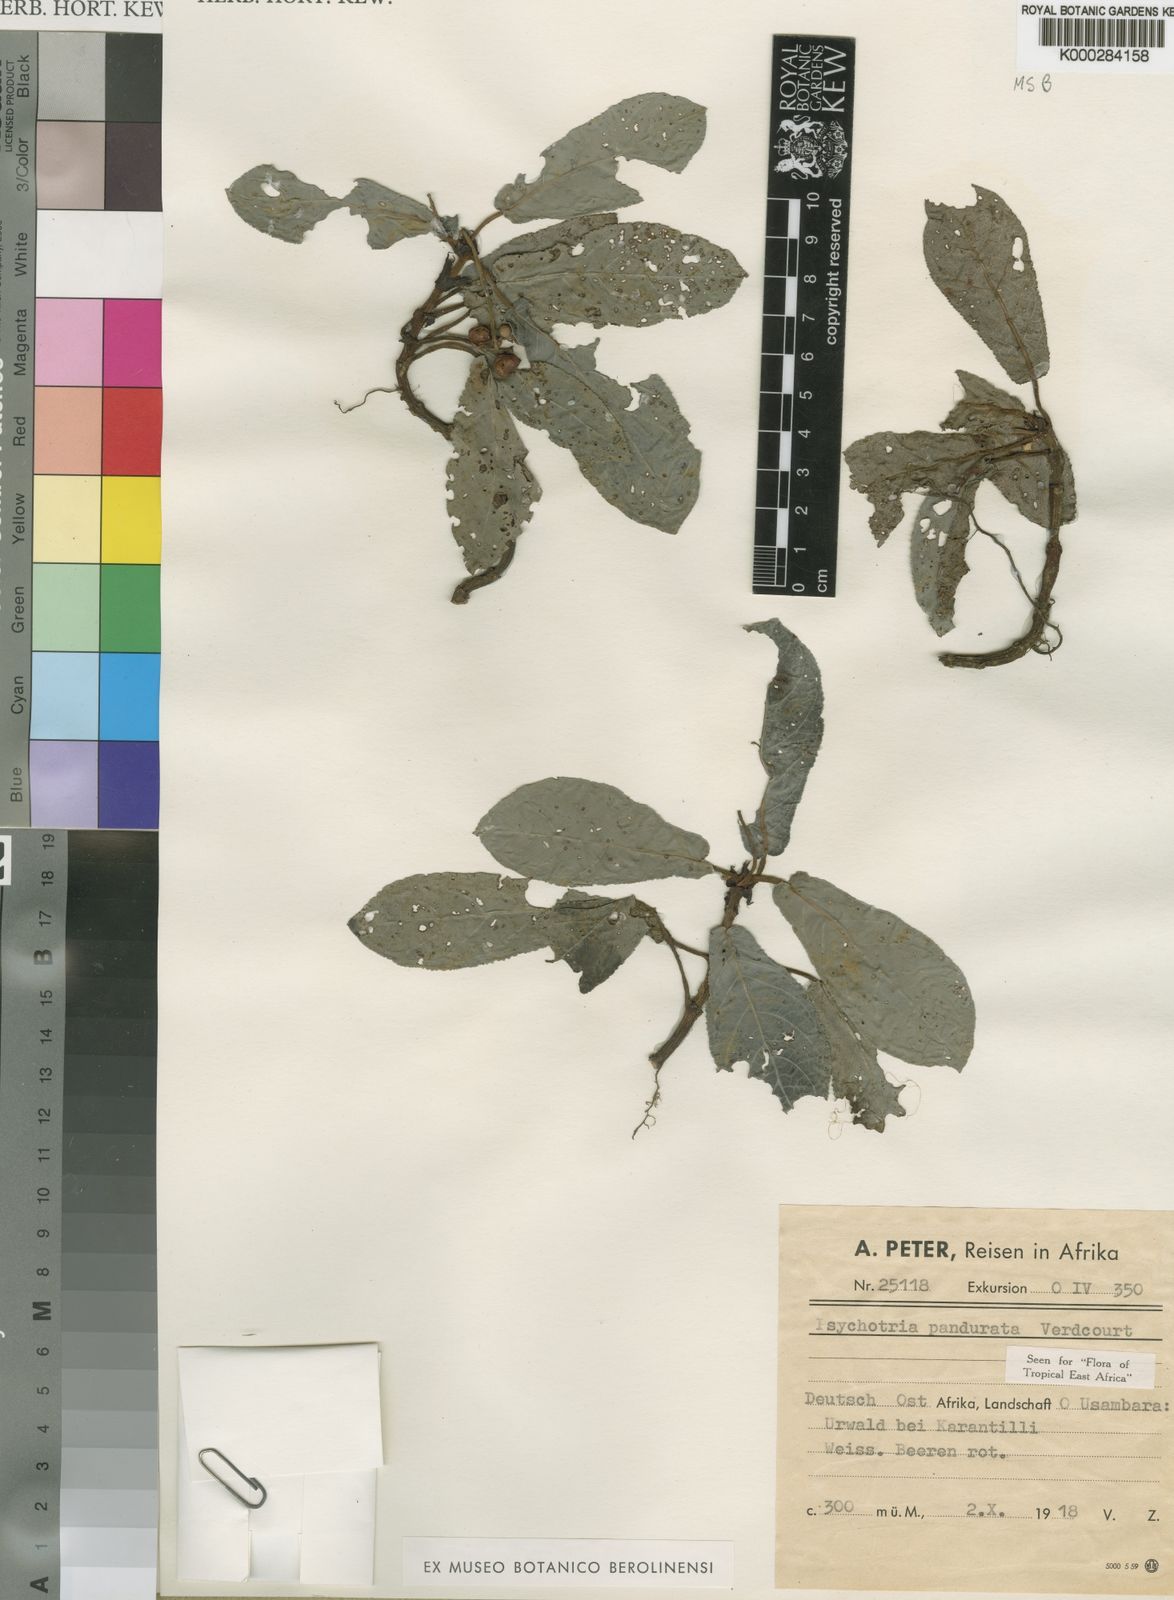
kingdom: Plantae
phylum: Tracheophyta
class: Magnoliopsida
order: Gentianales
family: Rubiaceae
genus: Psychotria
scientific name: Psychotria pandurata
